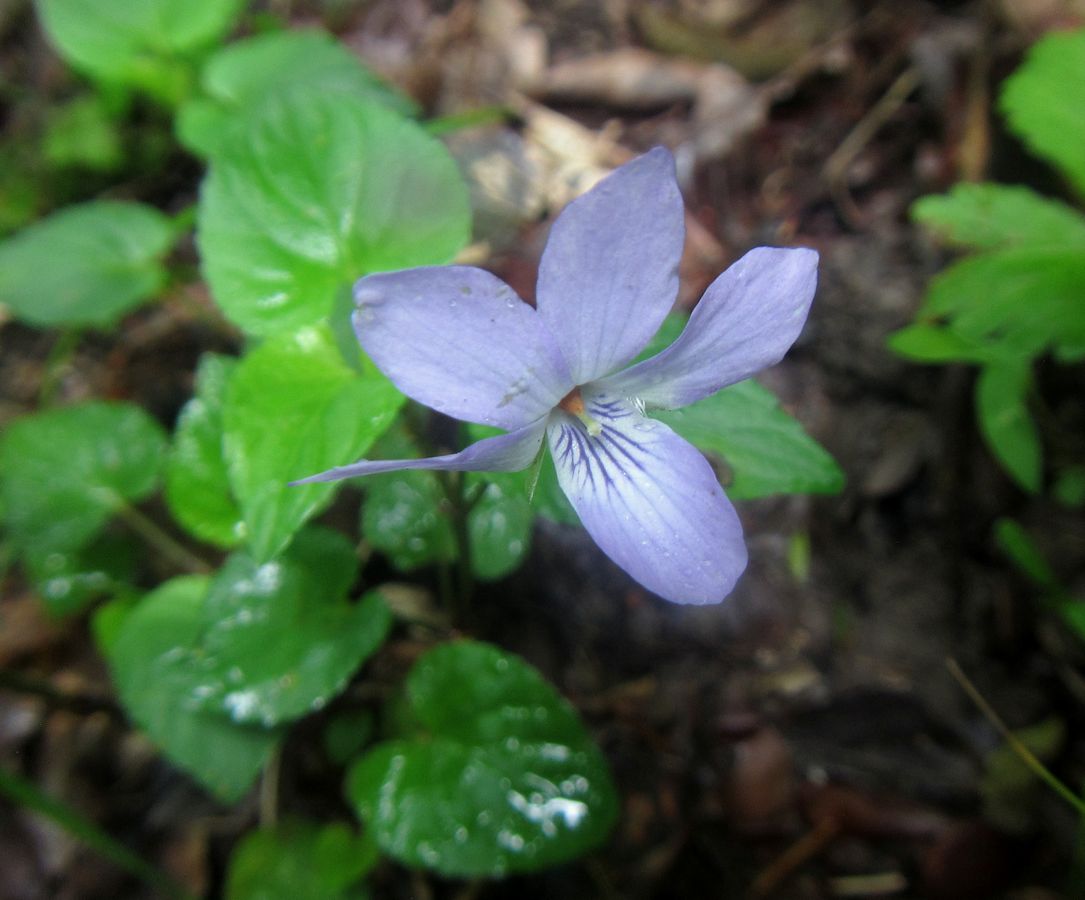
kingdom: Plantae
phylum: Tracheophyta
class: Magnoliopsida
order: Malpighiales
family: Violaceae
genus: Viola
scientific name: Viola
